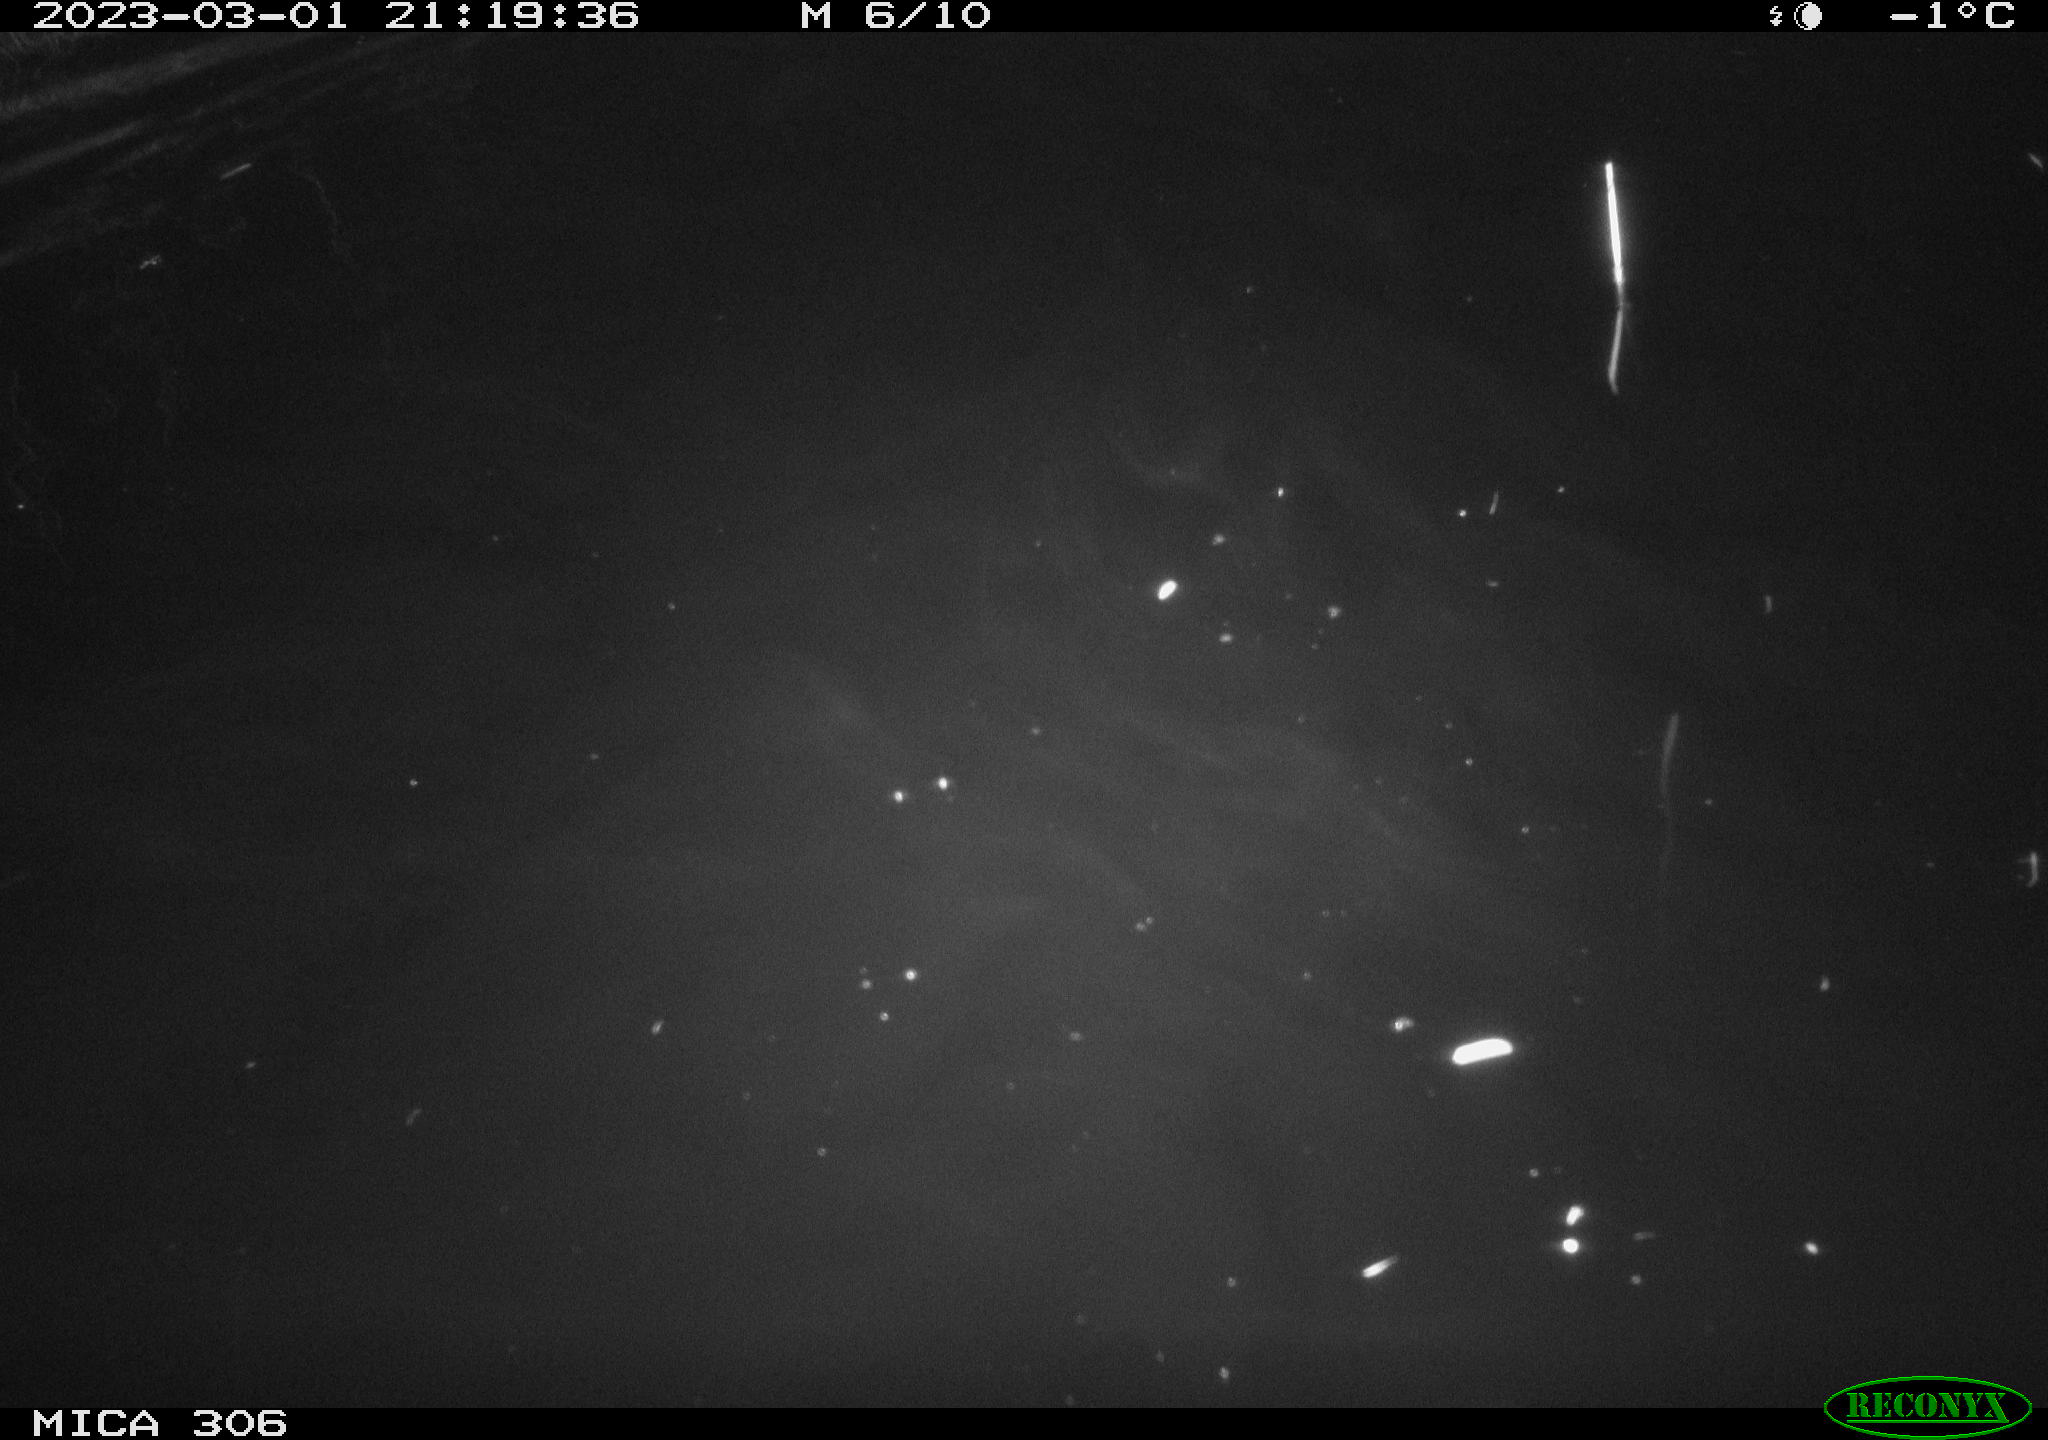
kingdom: Animalia
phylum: Chordata
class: Mammalia
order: Rodentia
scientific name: Rodentia
